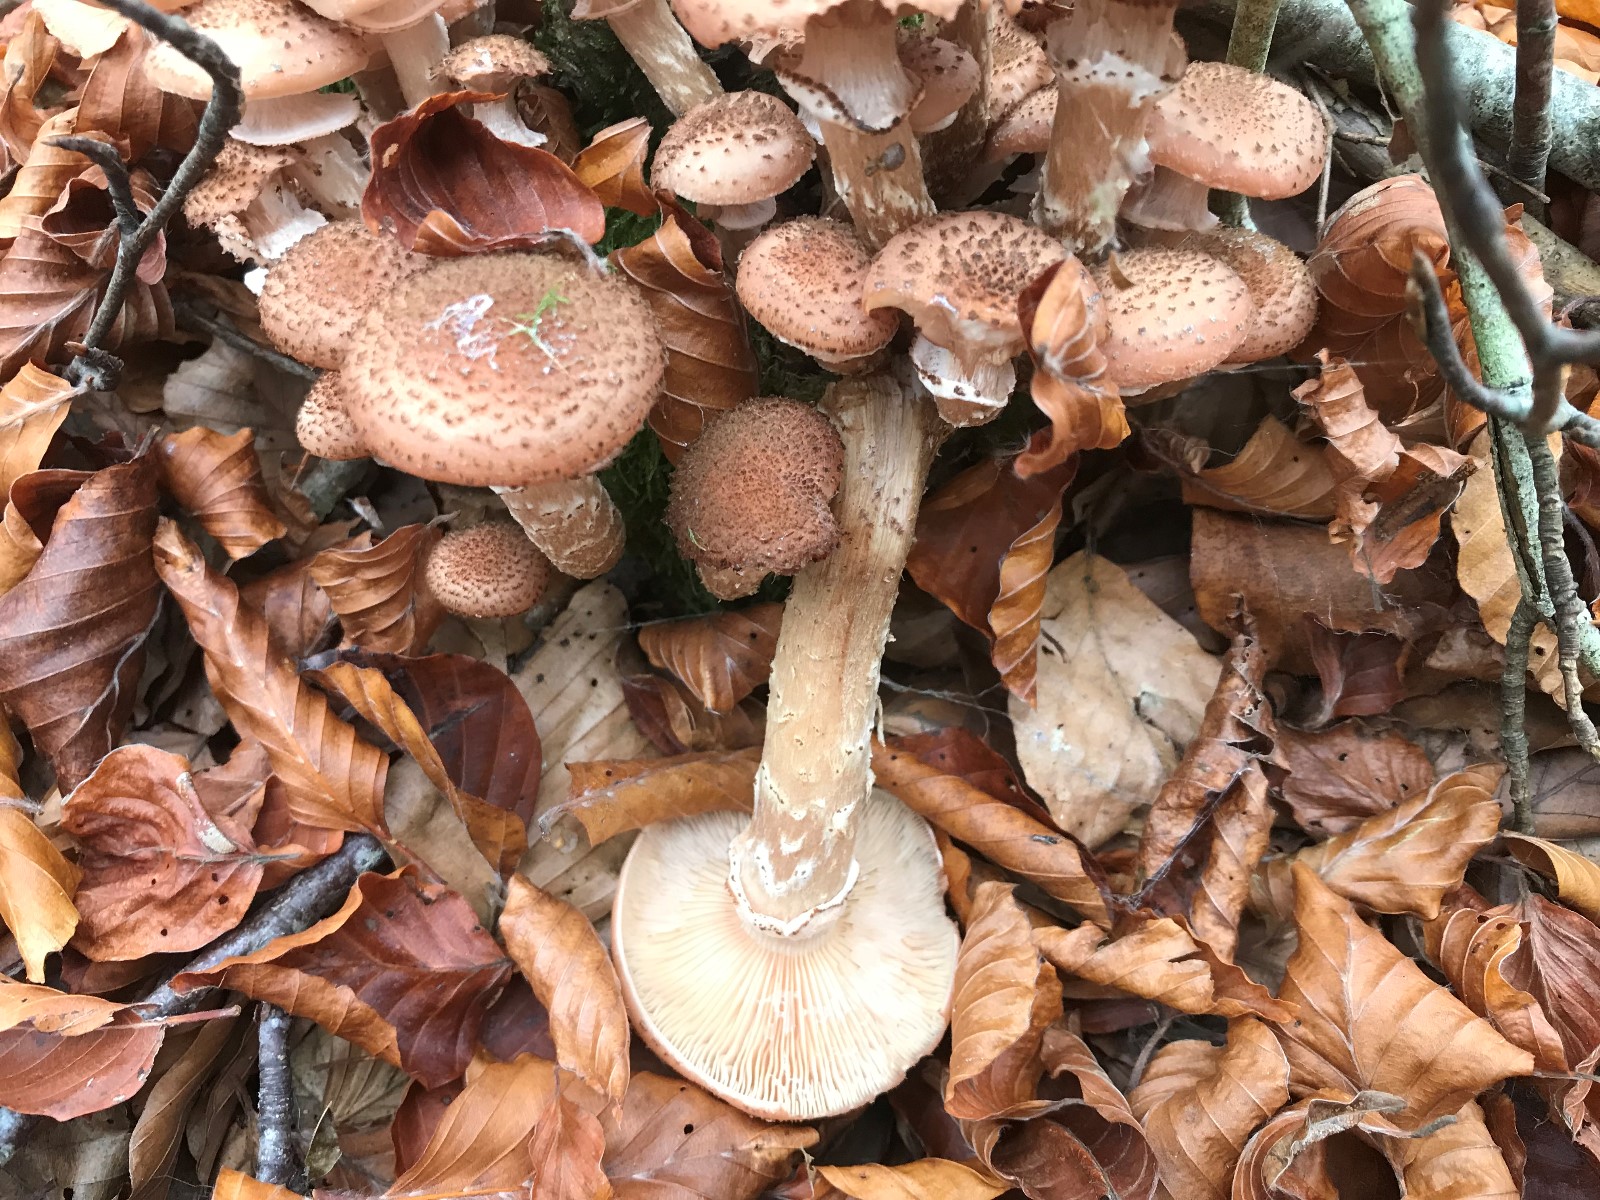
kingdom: Fungi
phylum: Basidiomycota
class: Agaricomycetes
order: Agaricales
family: Physalacriaceae
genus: Armillaria
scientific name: Armillaria ostoyae
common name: mørk honningsvamp
